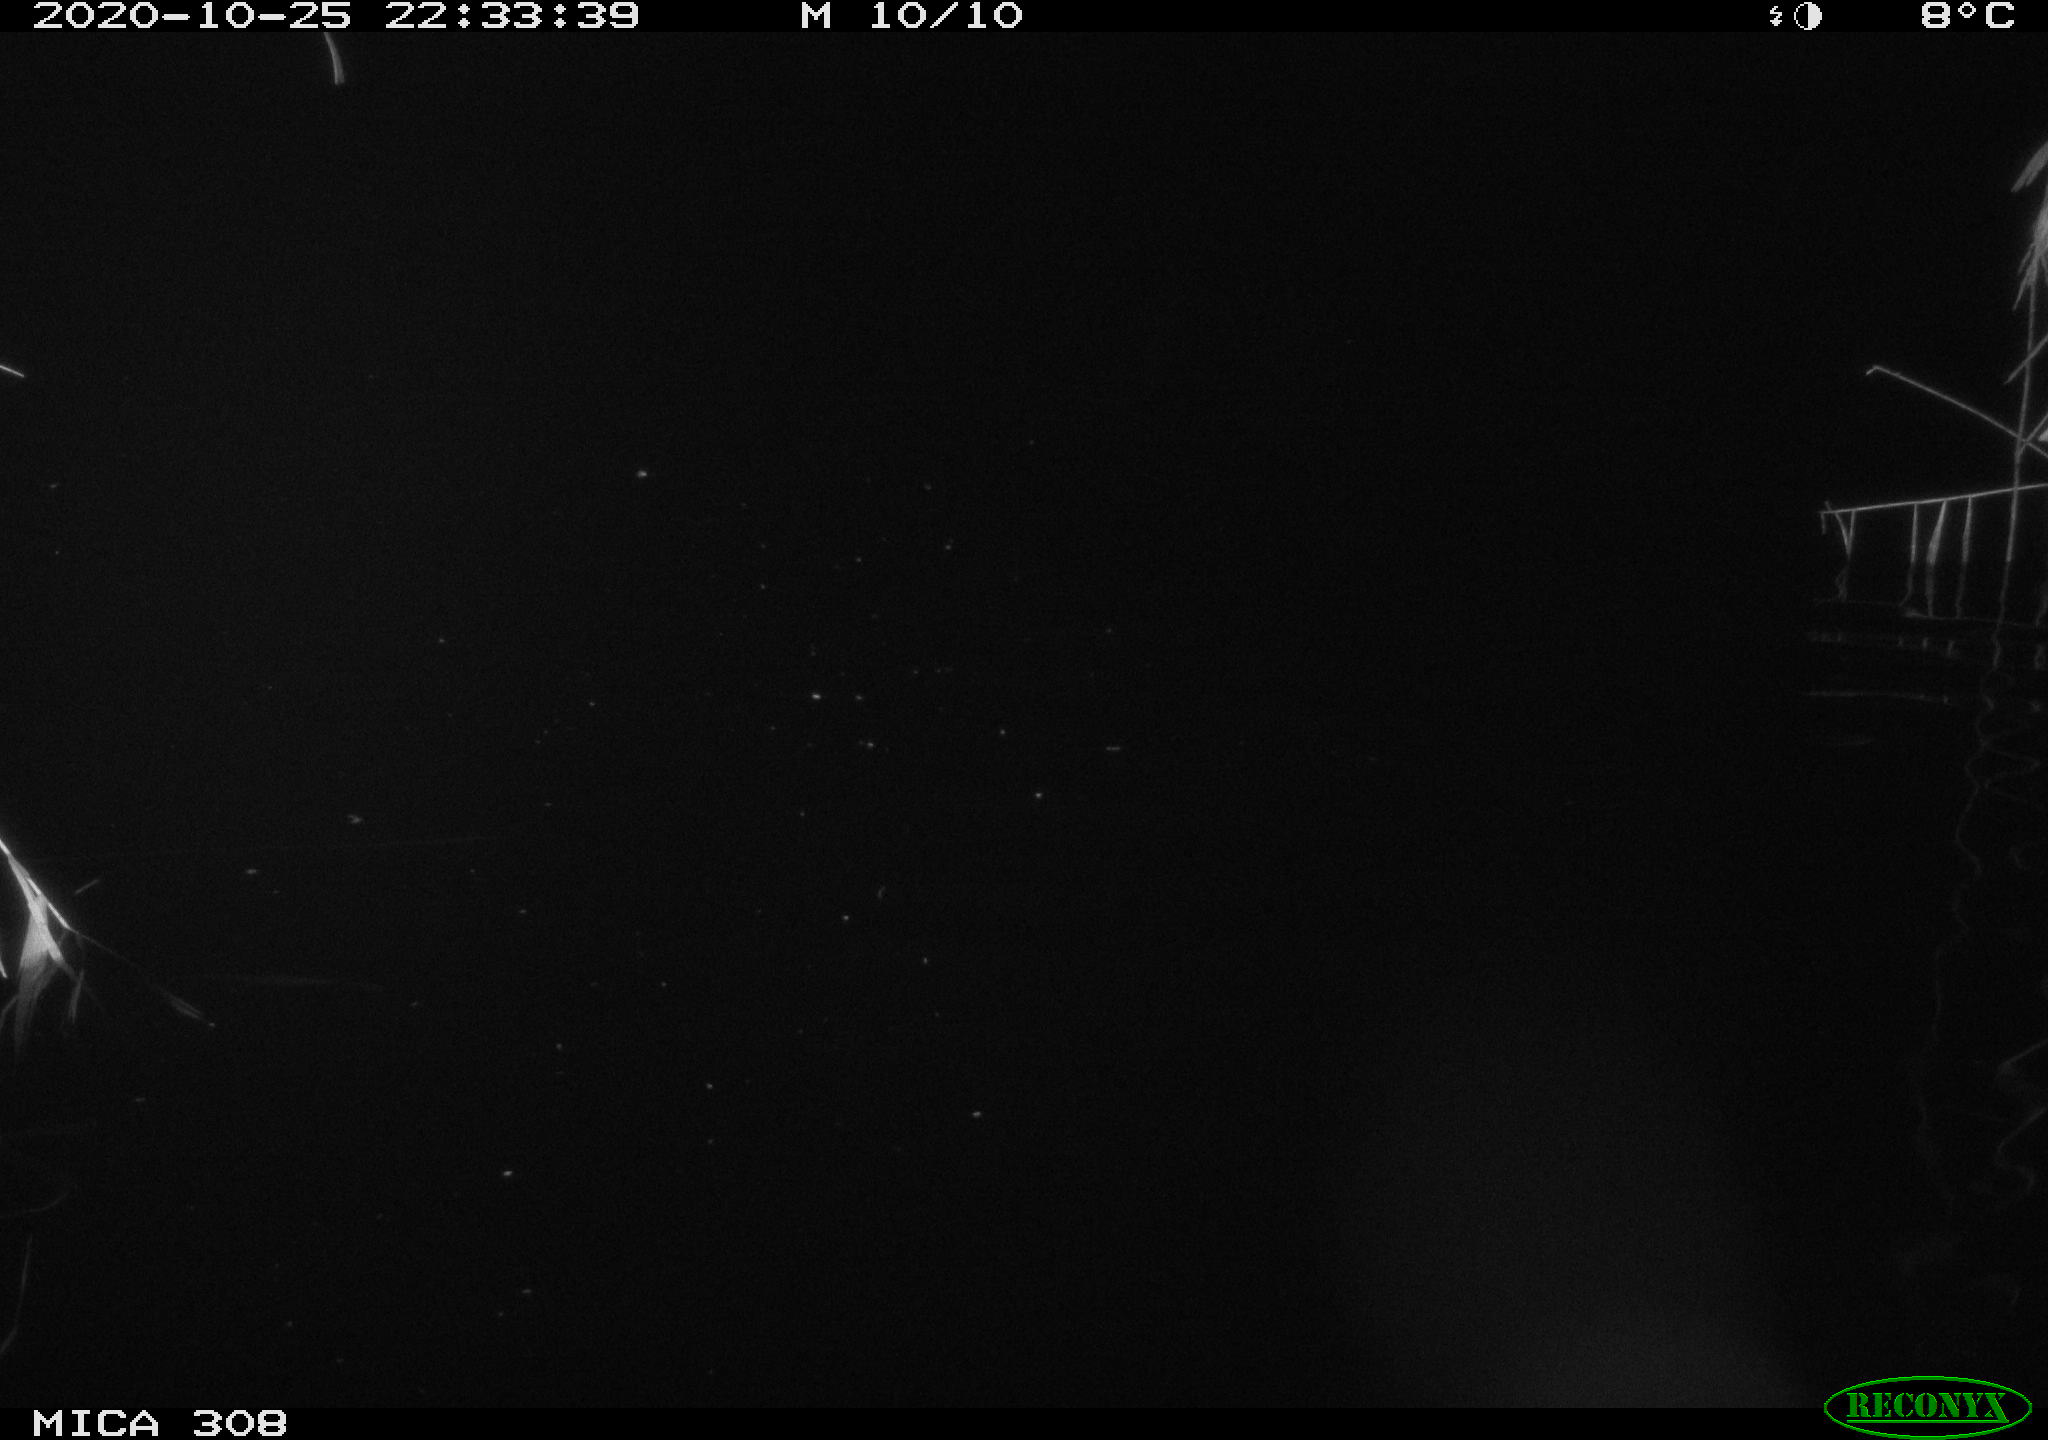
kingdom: Animalia
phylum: Chordata
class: Mammalia
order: Rodentia
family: Muridae
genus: Rattus
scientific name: Rattus norvegicus
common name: Brown rat
